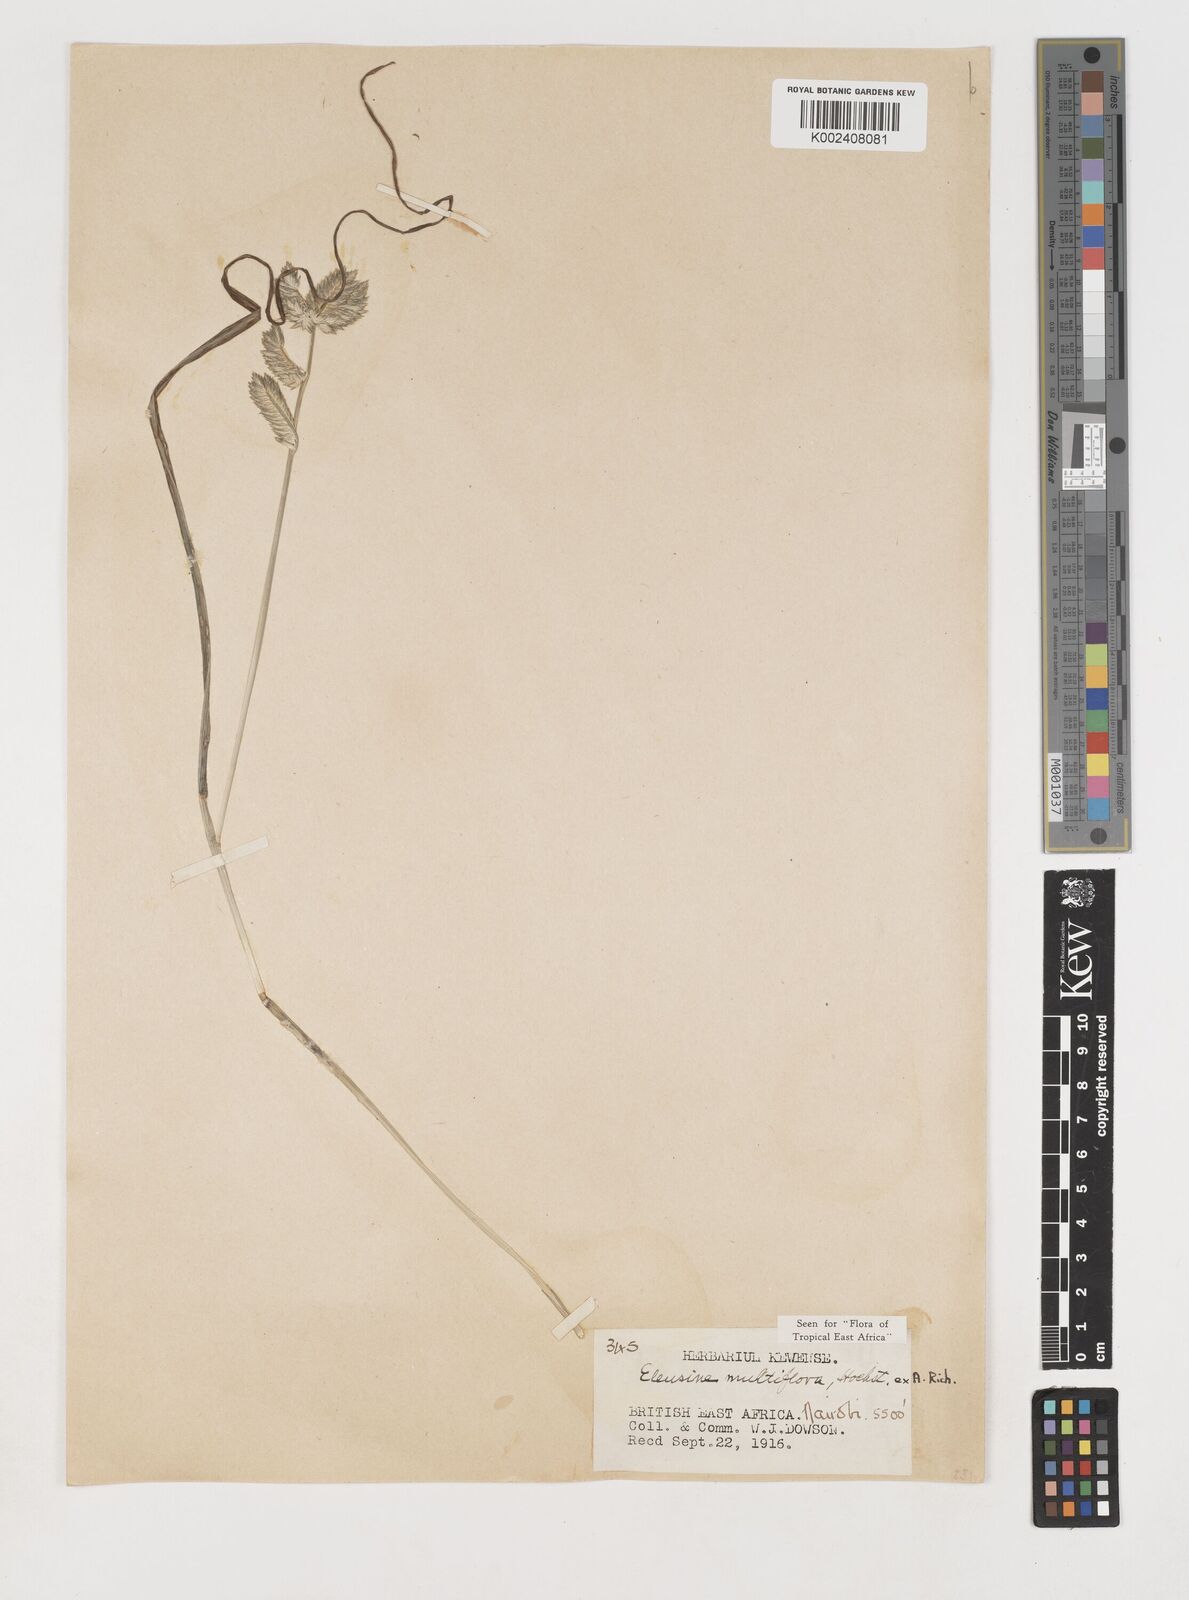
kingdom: Plantae
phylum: Tracheophyta
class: Liliopsida
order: Poales
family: Poaceae
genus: Eleusine
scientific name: Eleusine multiflora
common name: Fat-spiked yard-grass
